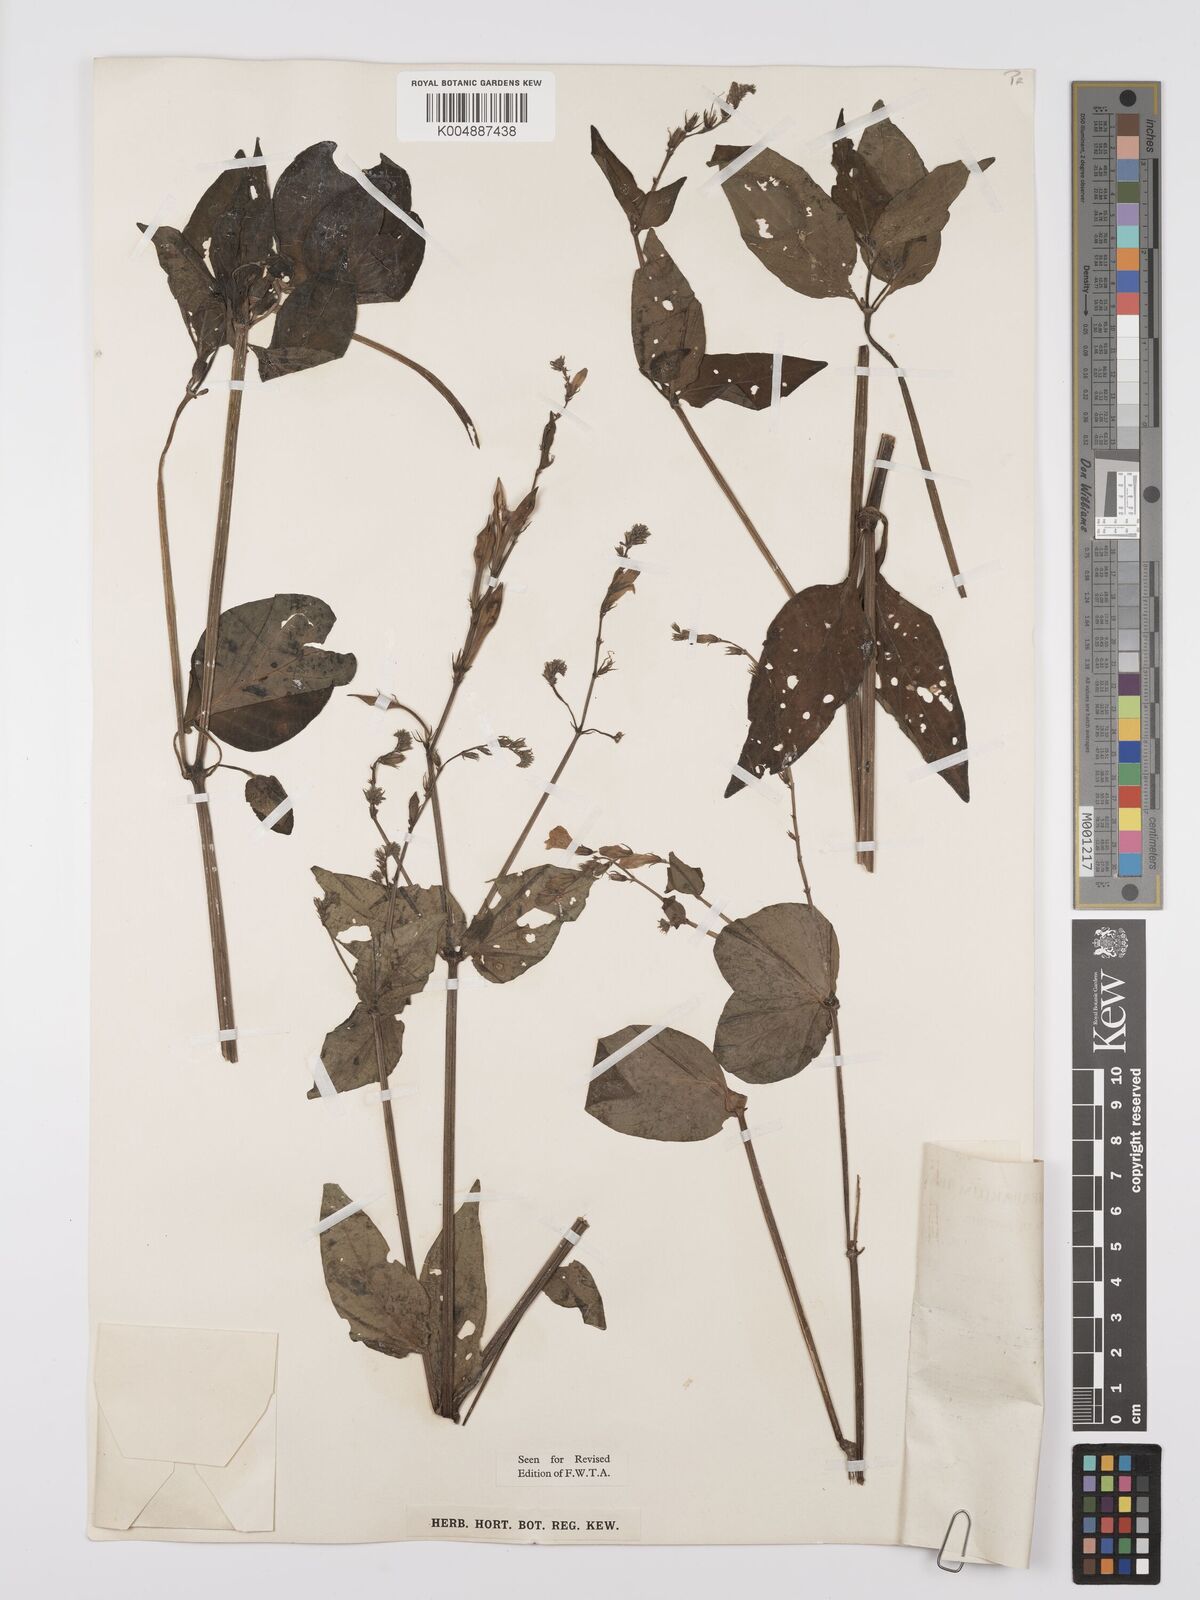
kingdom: Plantae
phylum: Tracheophyta
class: Magnoliopsida
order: Lamiales
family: Acanthaceae
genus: Asystasia
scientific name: Asystasia gangetica
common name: Chinese violet
